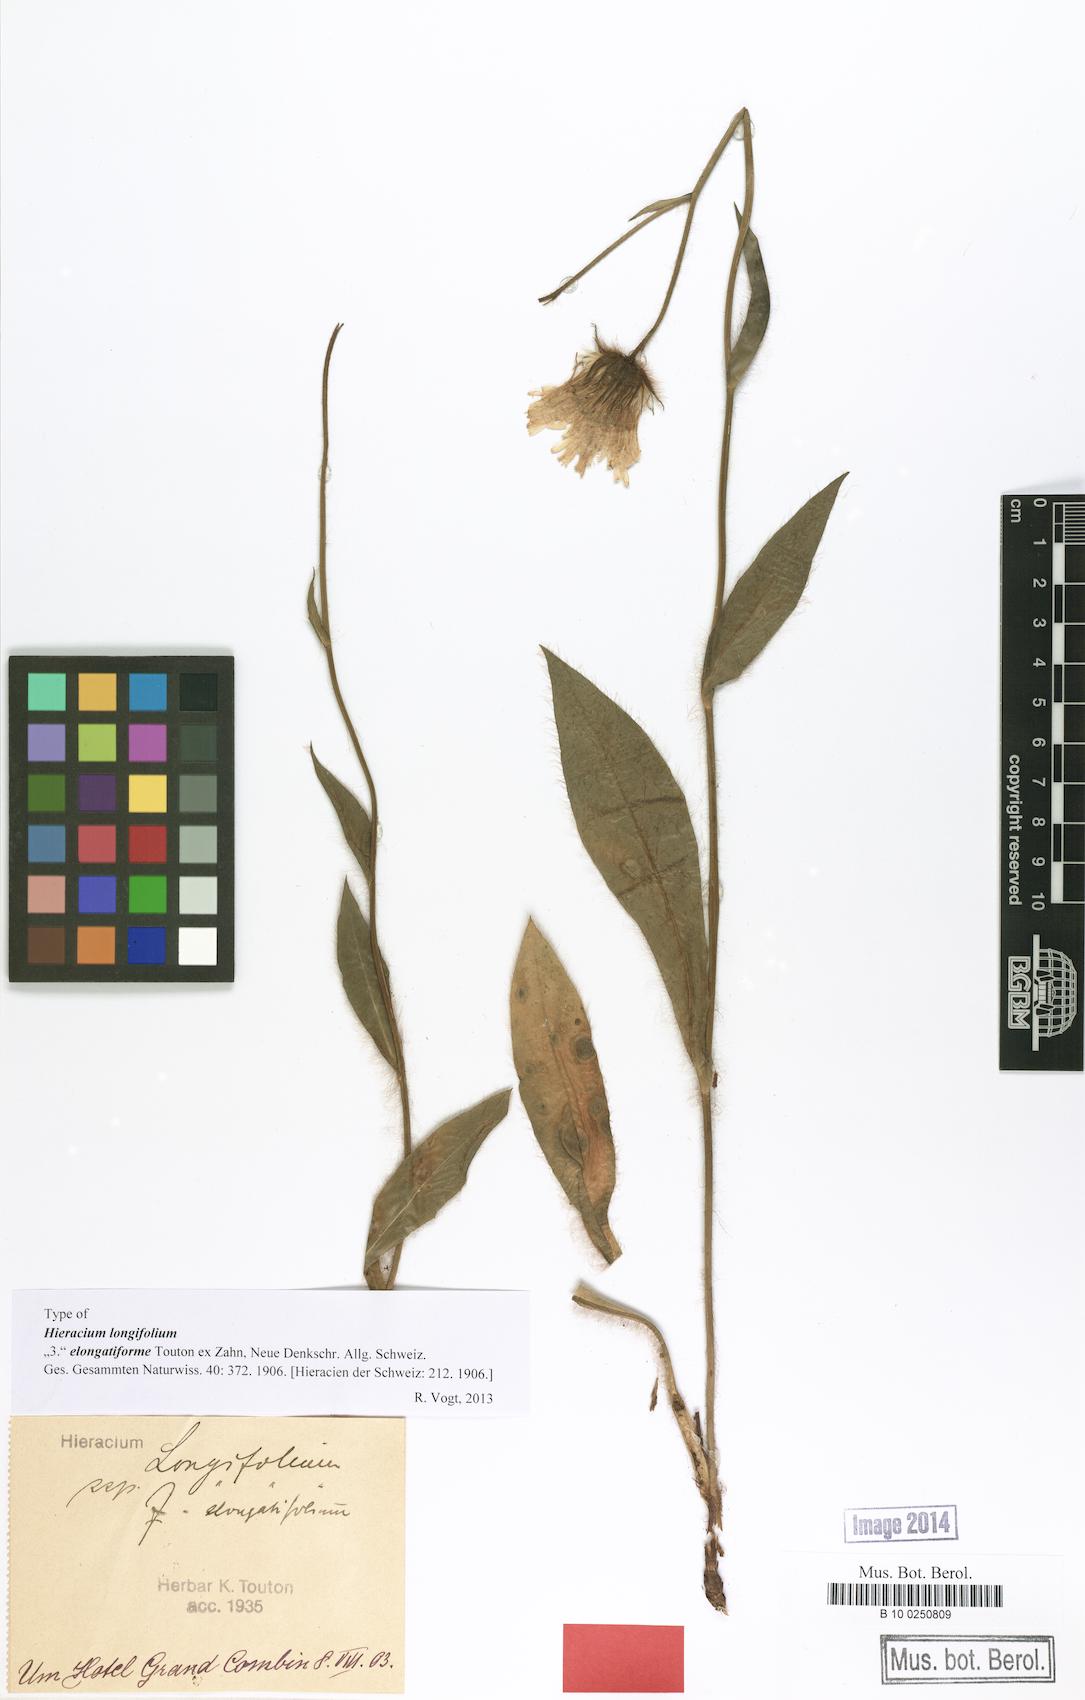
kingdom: Plantae
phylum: Tracheophyta
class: Magnoliopsida
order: Asterales
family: Asteraceae
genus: Hieracium
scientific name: Hieracium longifolium
